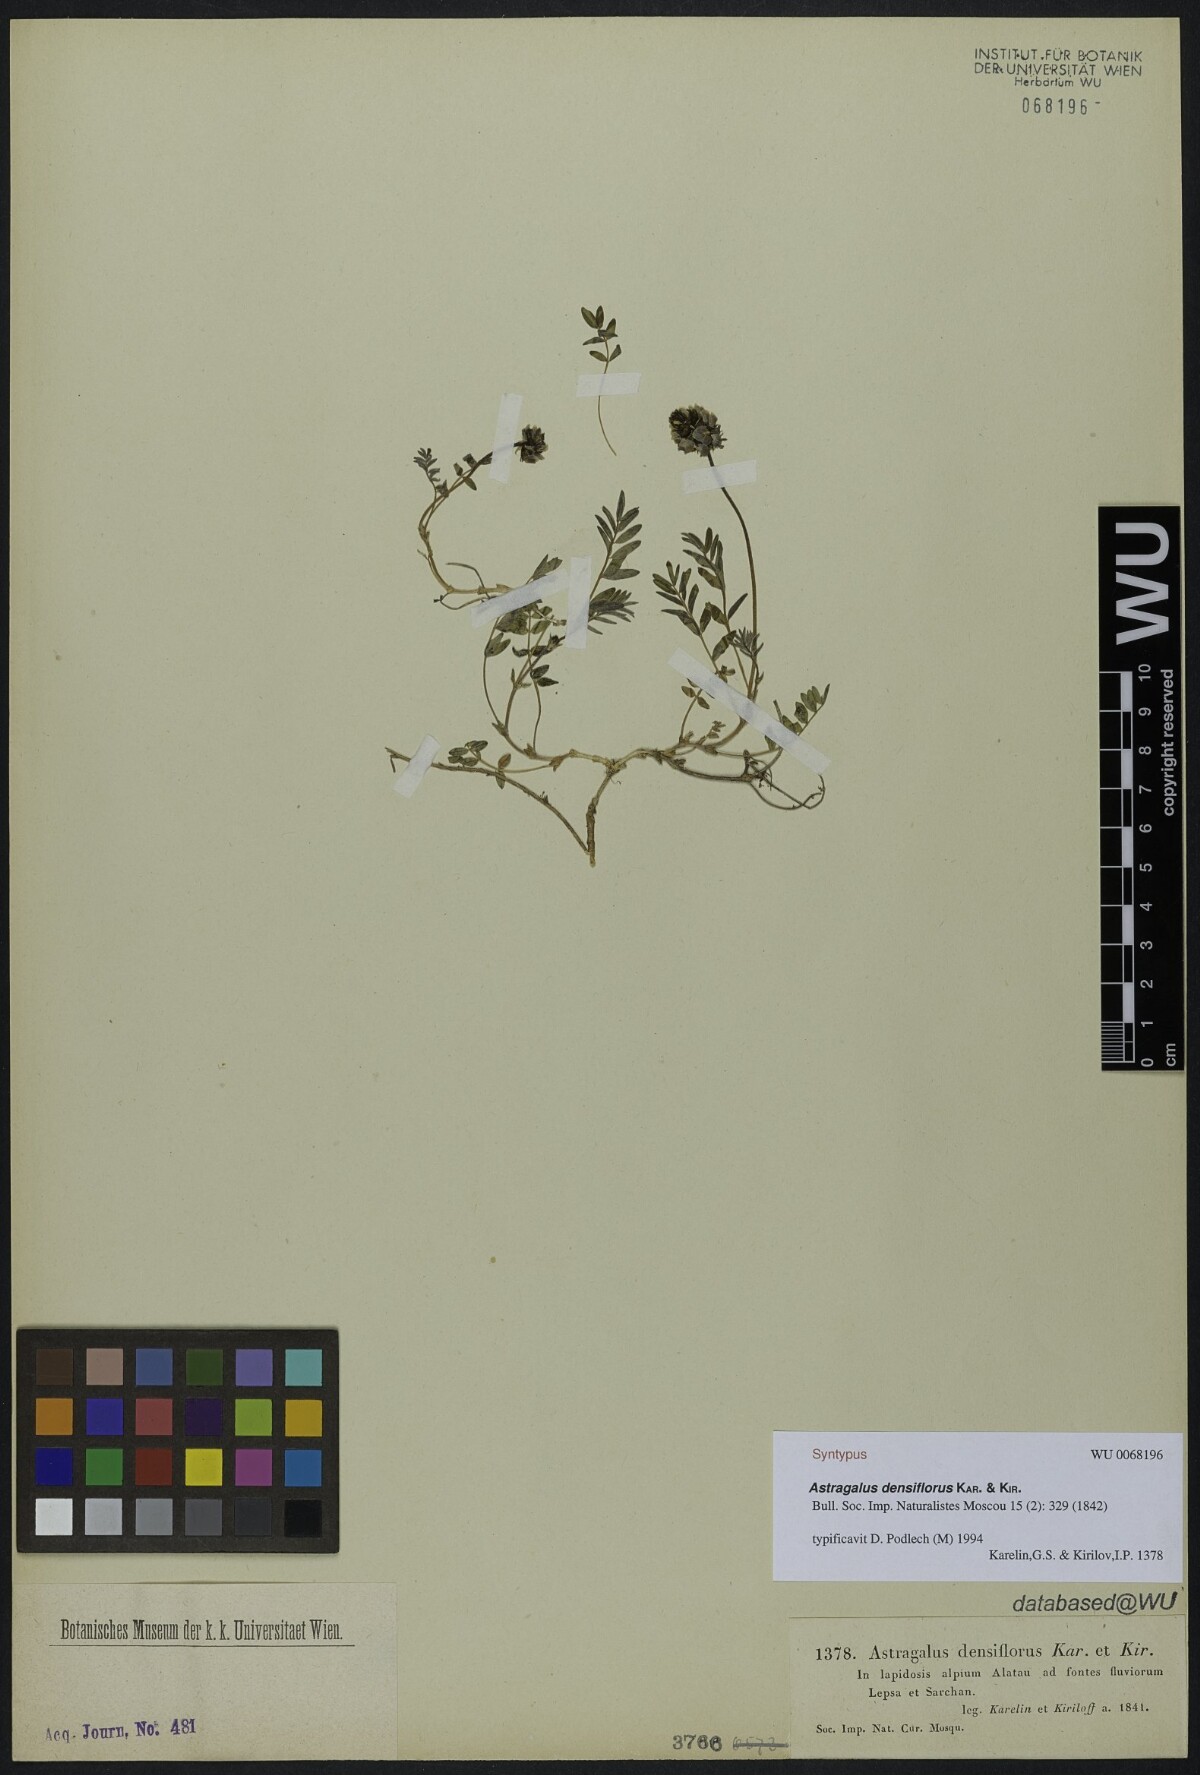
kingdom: Plantae
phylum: Tracheophyta
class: Magnoliopsida
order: Fabales
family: Fabaceae
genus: Astragalus
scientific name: Astragalus densiflorus
